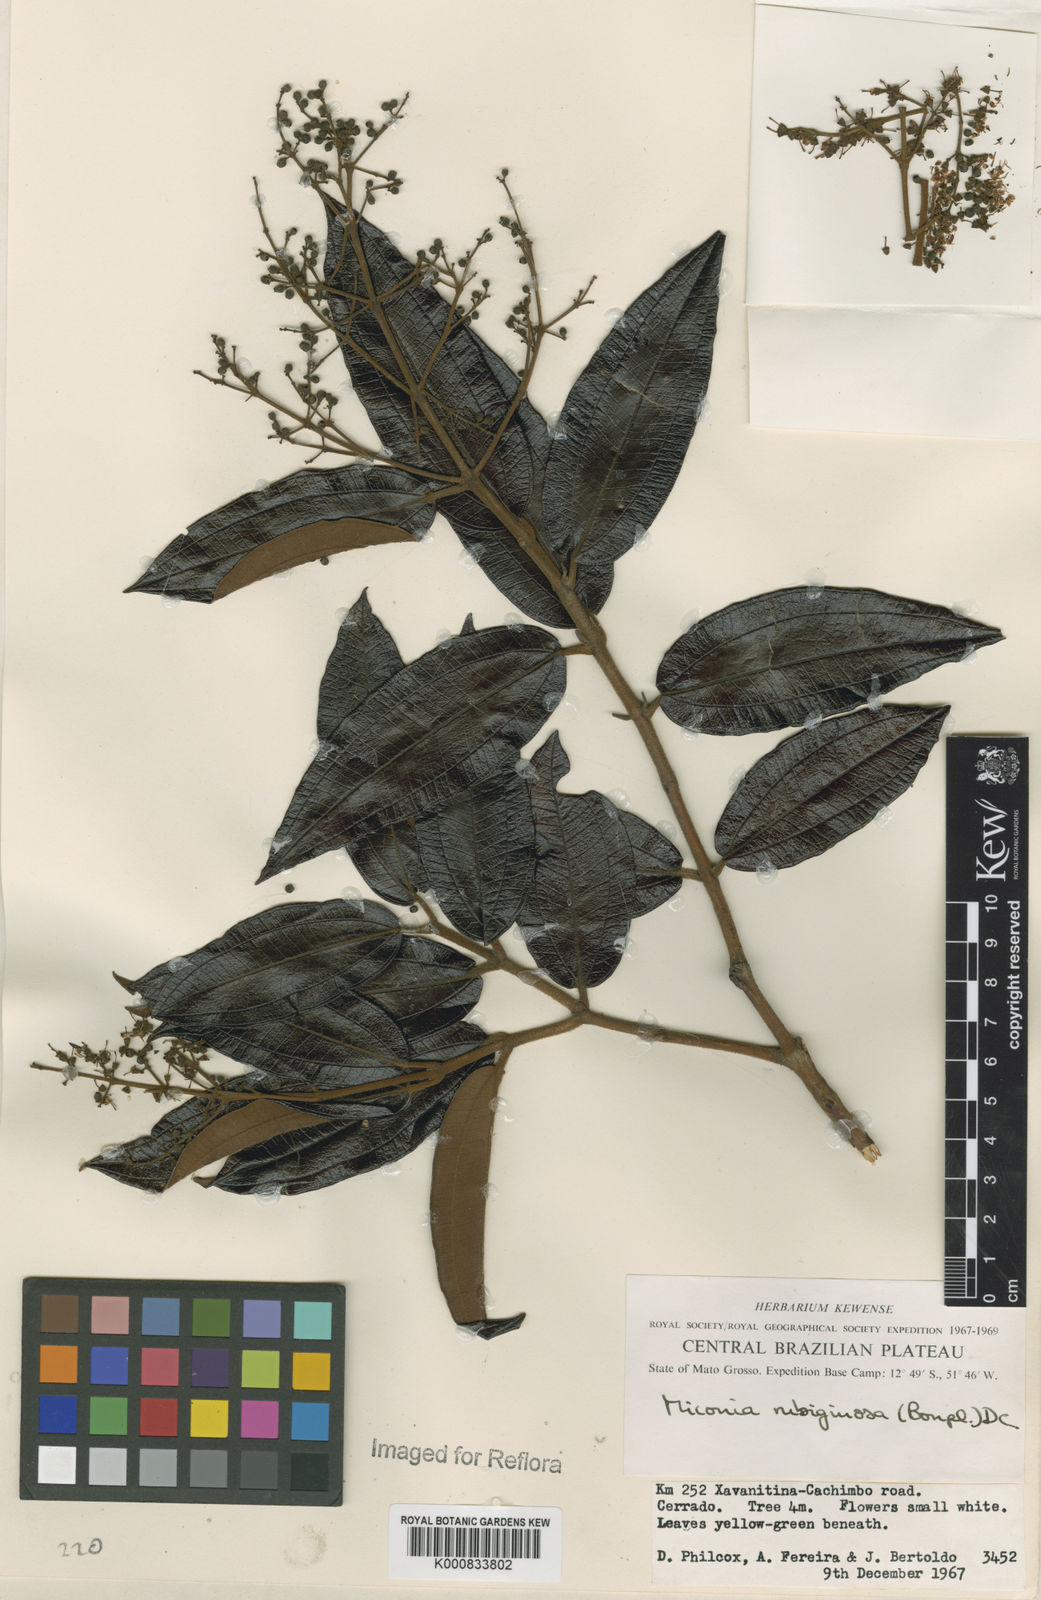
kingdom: Plantae
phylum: Tracheophyta
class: Magnoliopsida
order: Myrtales
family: Melastomataceae
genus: Miconia
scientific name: Miconia rubiginosa
